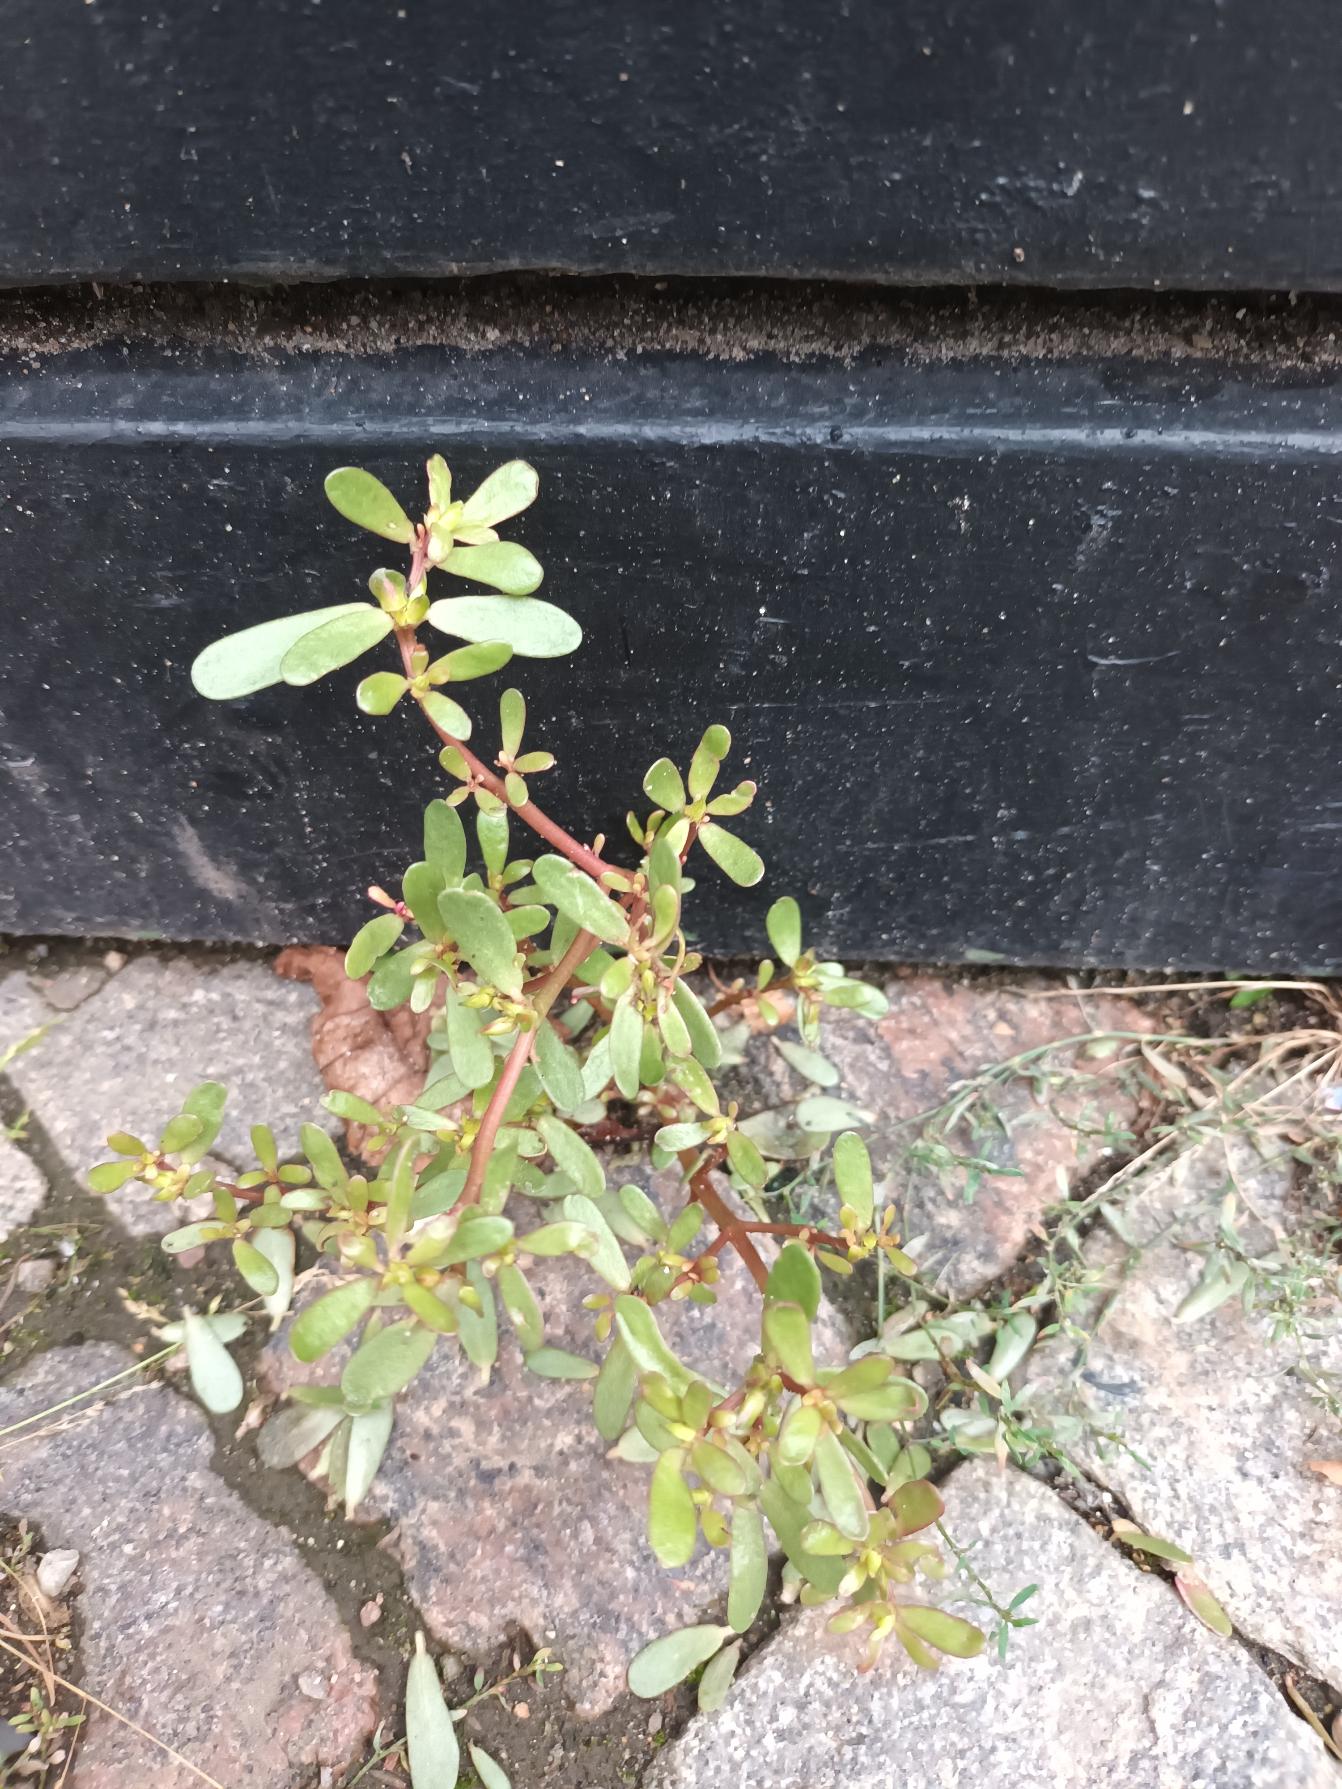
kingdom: Plantae
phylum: Tracheophyta
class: Magnoliopsida
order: Caryophyllales
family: Portulacaceae
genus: Portulaca
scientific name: Portulaca oleracea
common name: Portulak
